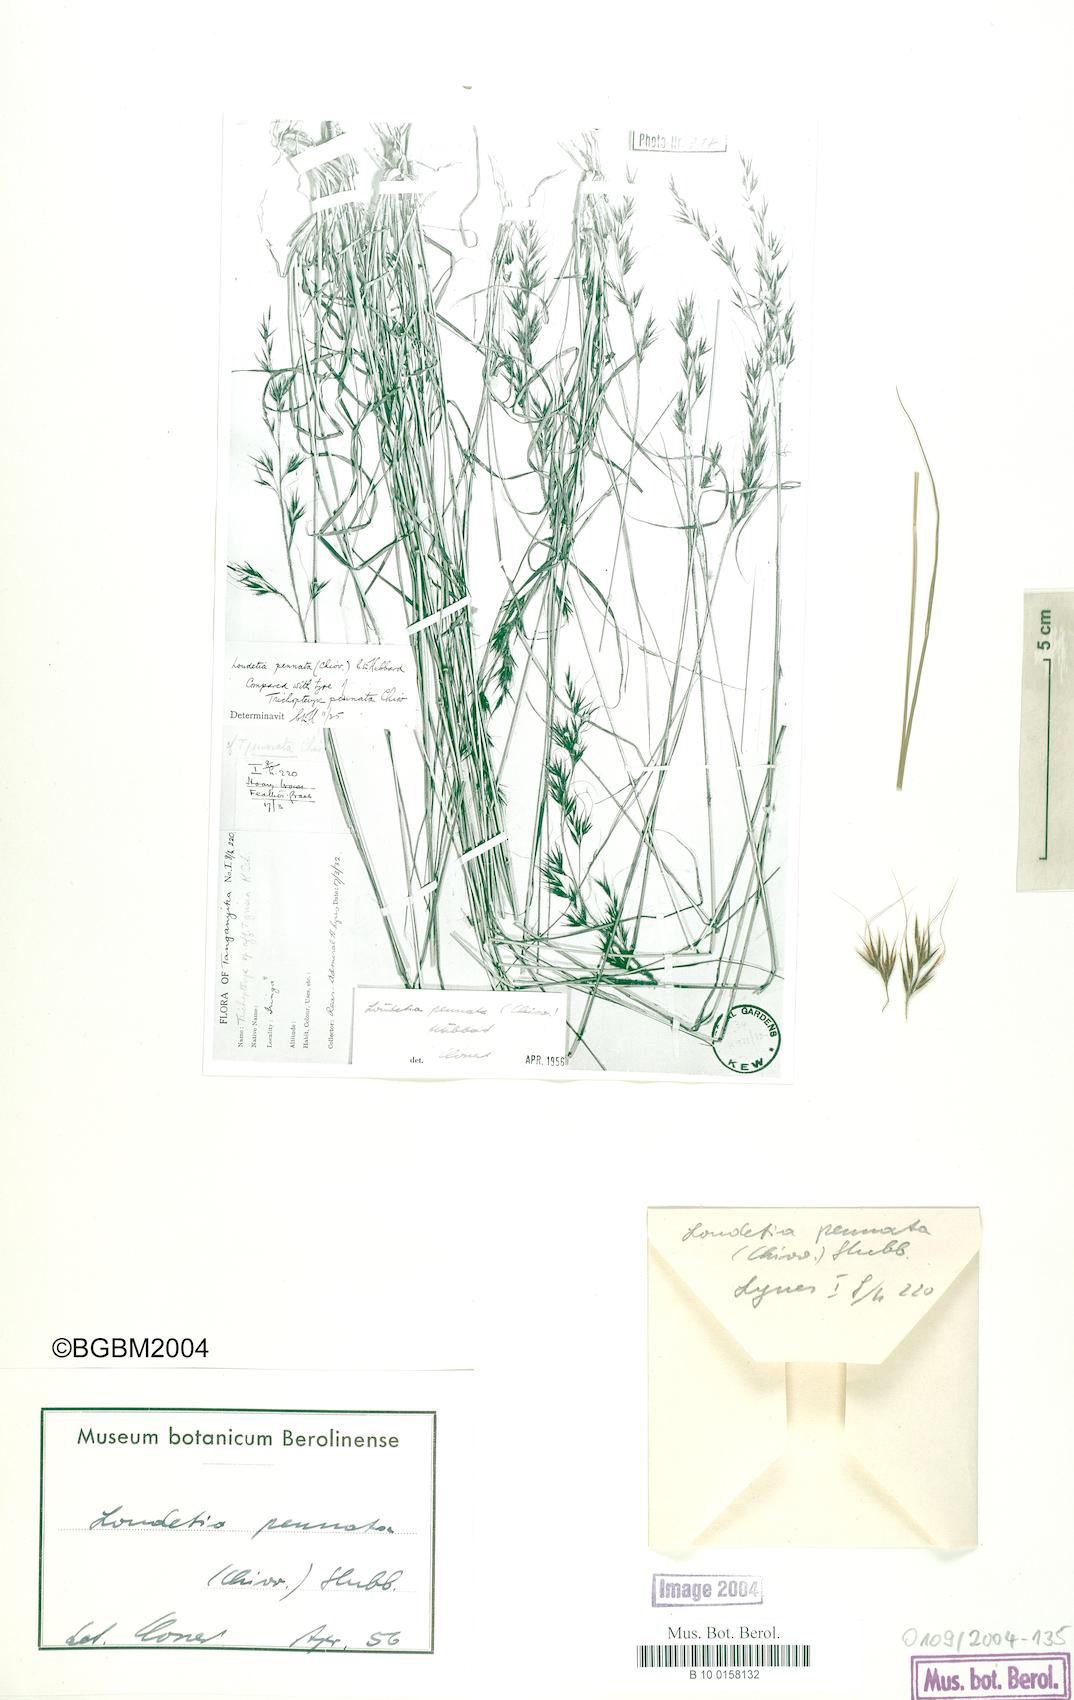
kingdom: Plantae
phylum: Tracheophyta
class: Liliopsida
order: Poales
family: Poaceae
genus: Loudetia
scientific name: Loudetia flavida
